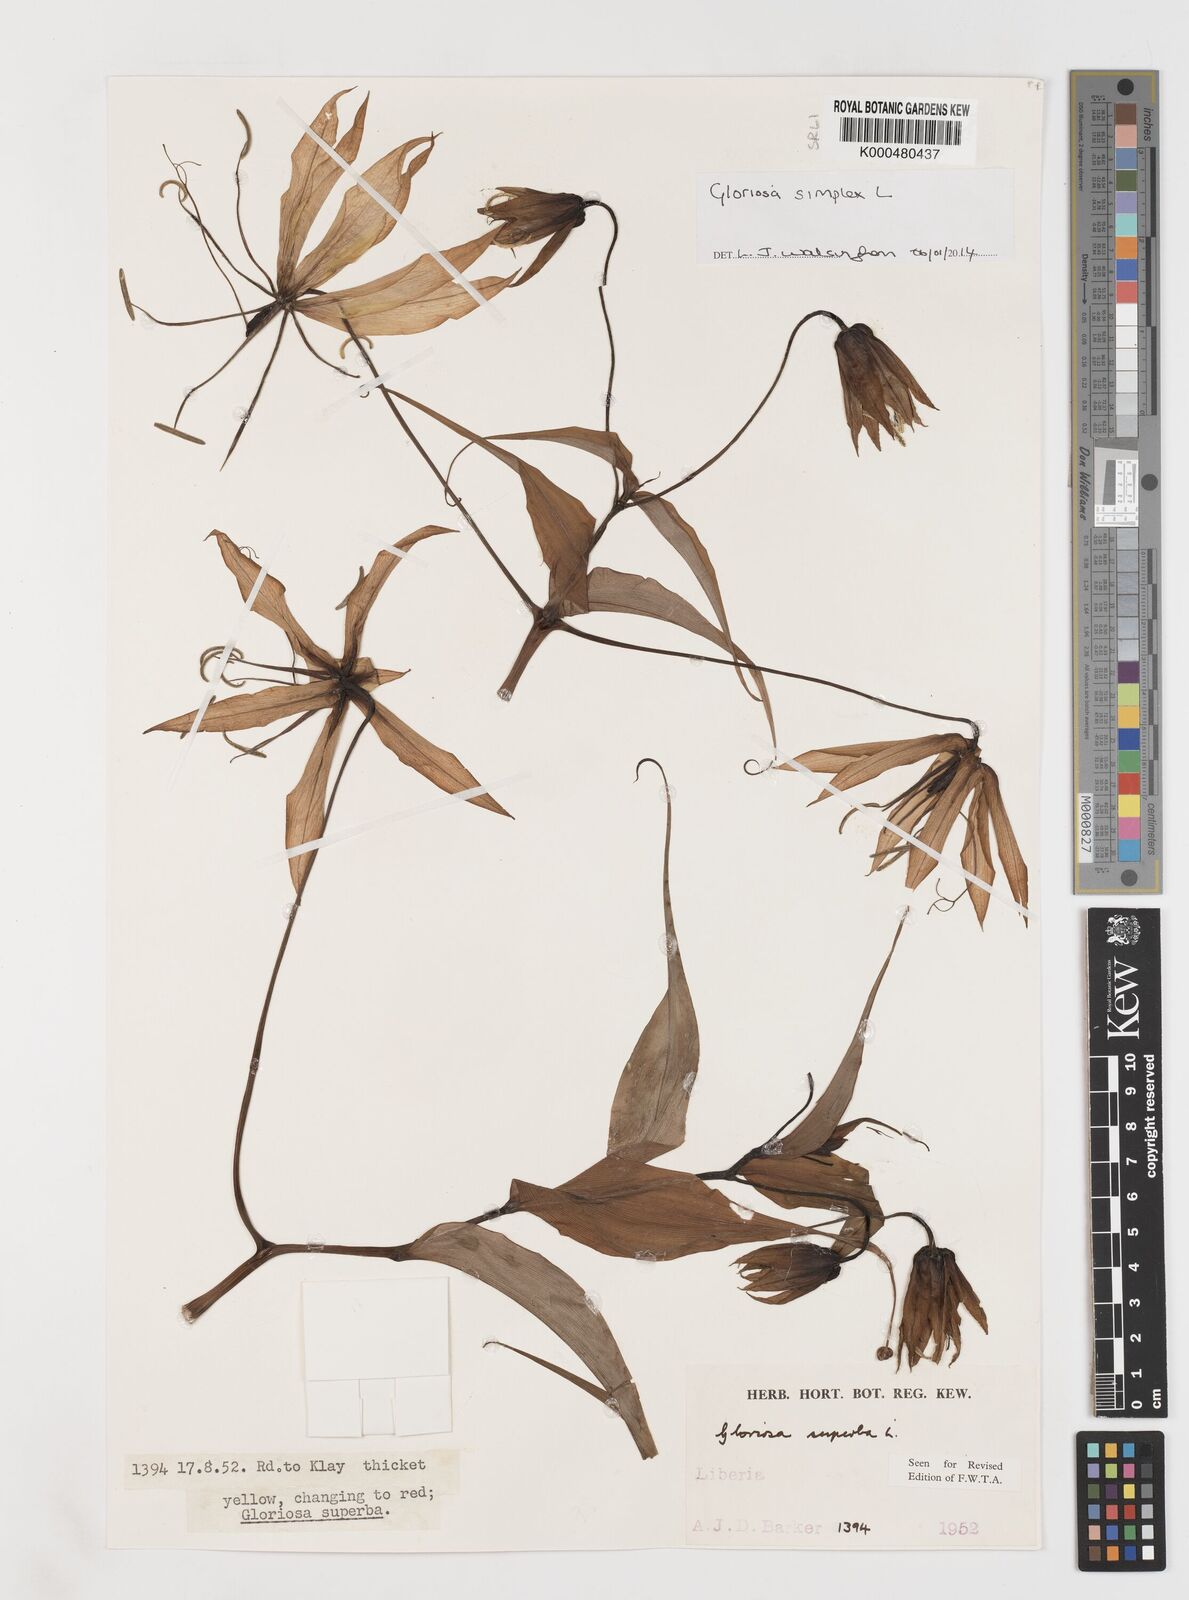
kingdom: Plantae
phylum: Tracheophyta
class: Liliopsida
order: Liliales
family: Colchicaceae
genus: Gloriosa
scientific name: Gloriosa simplex
